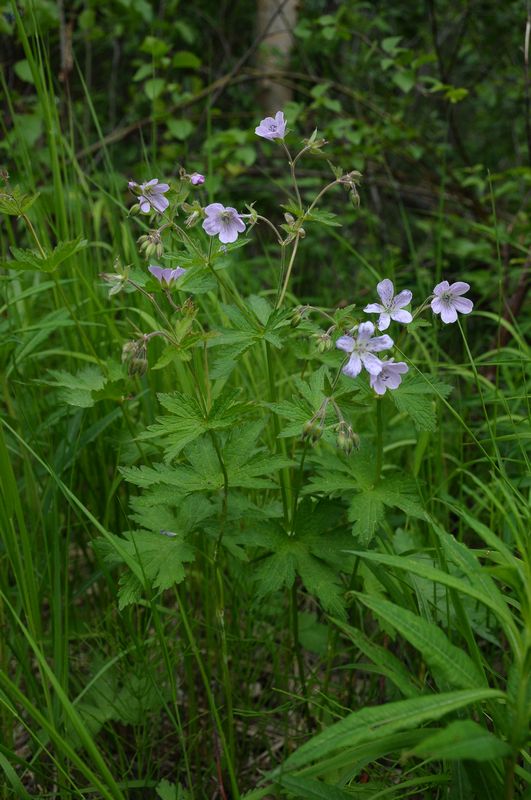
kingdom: Plantae
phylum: Tracheophyta
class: Magnoliopsida
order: Geraniales
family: Geraniaceae
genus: Geranium
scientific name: Geranium sylvaticum
